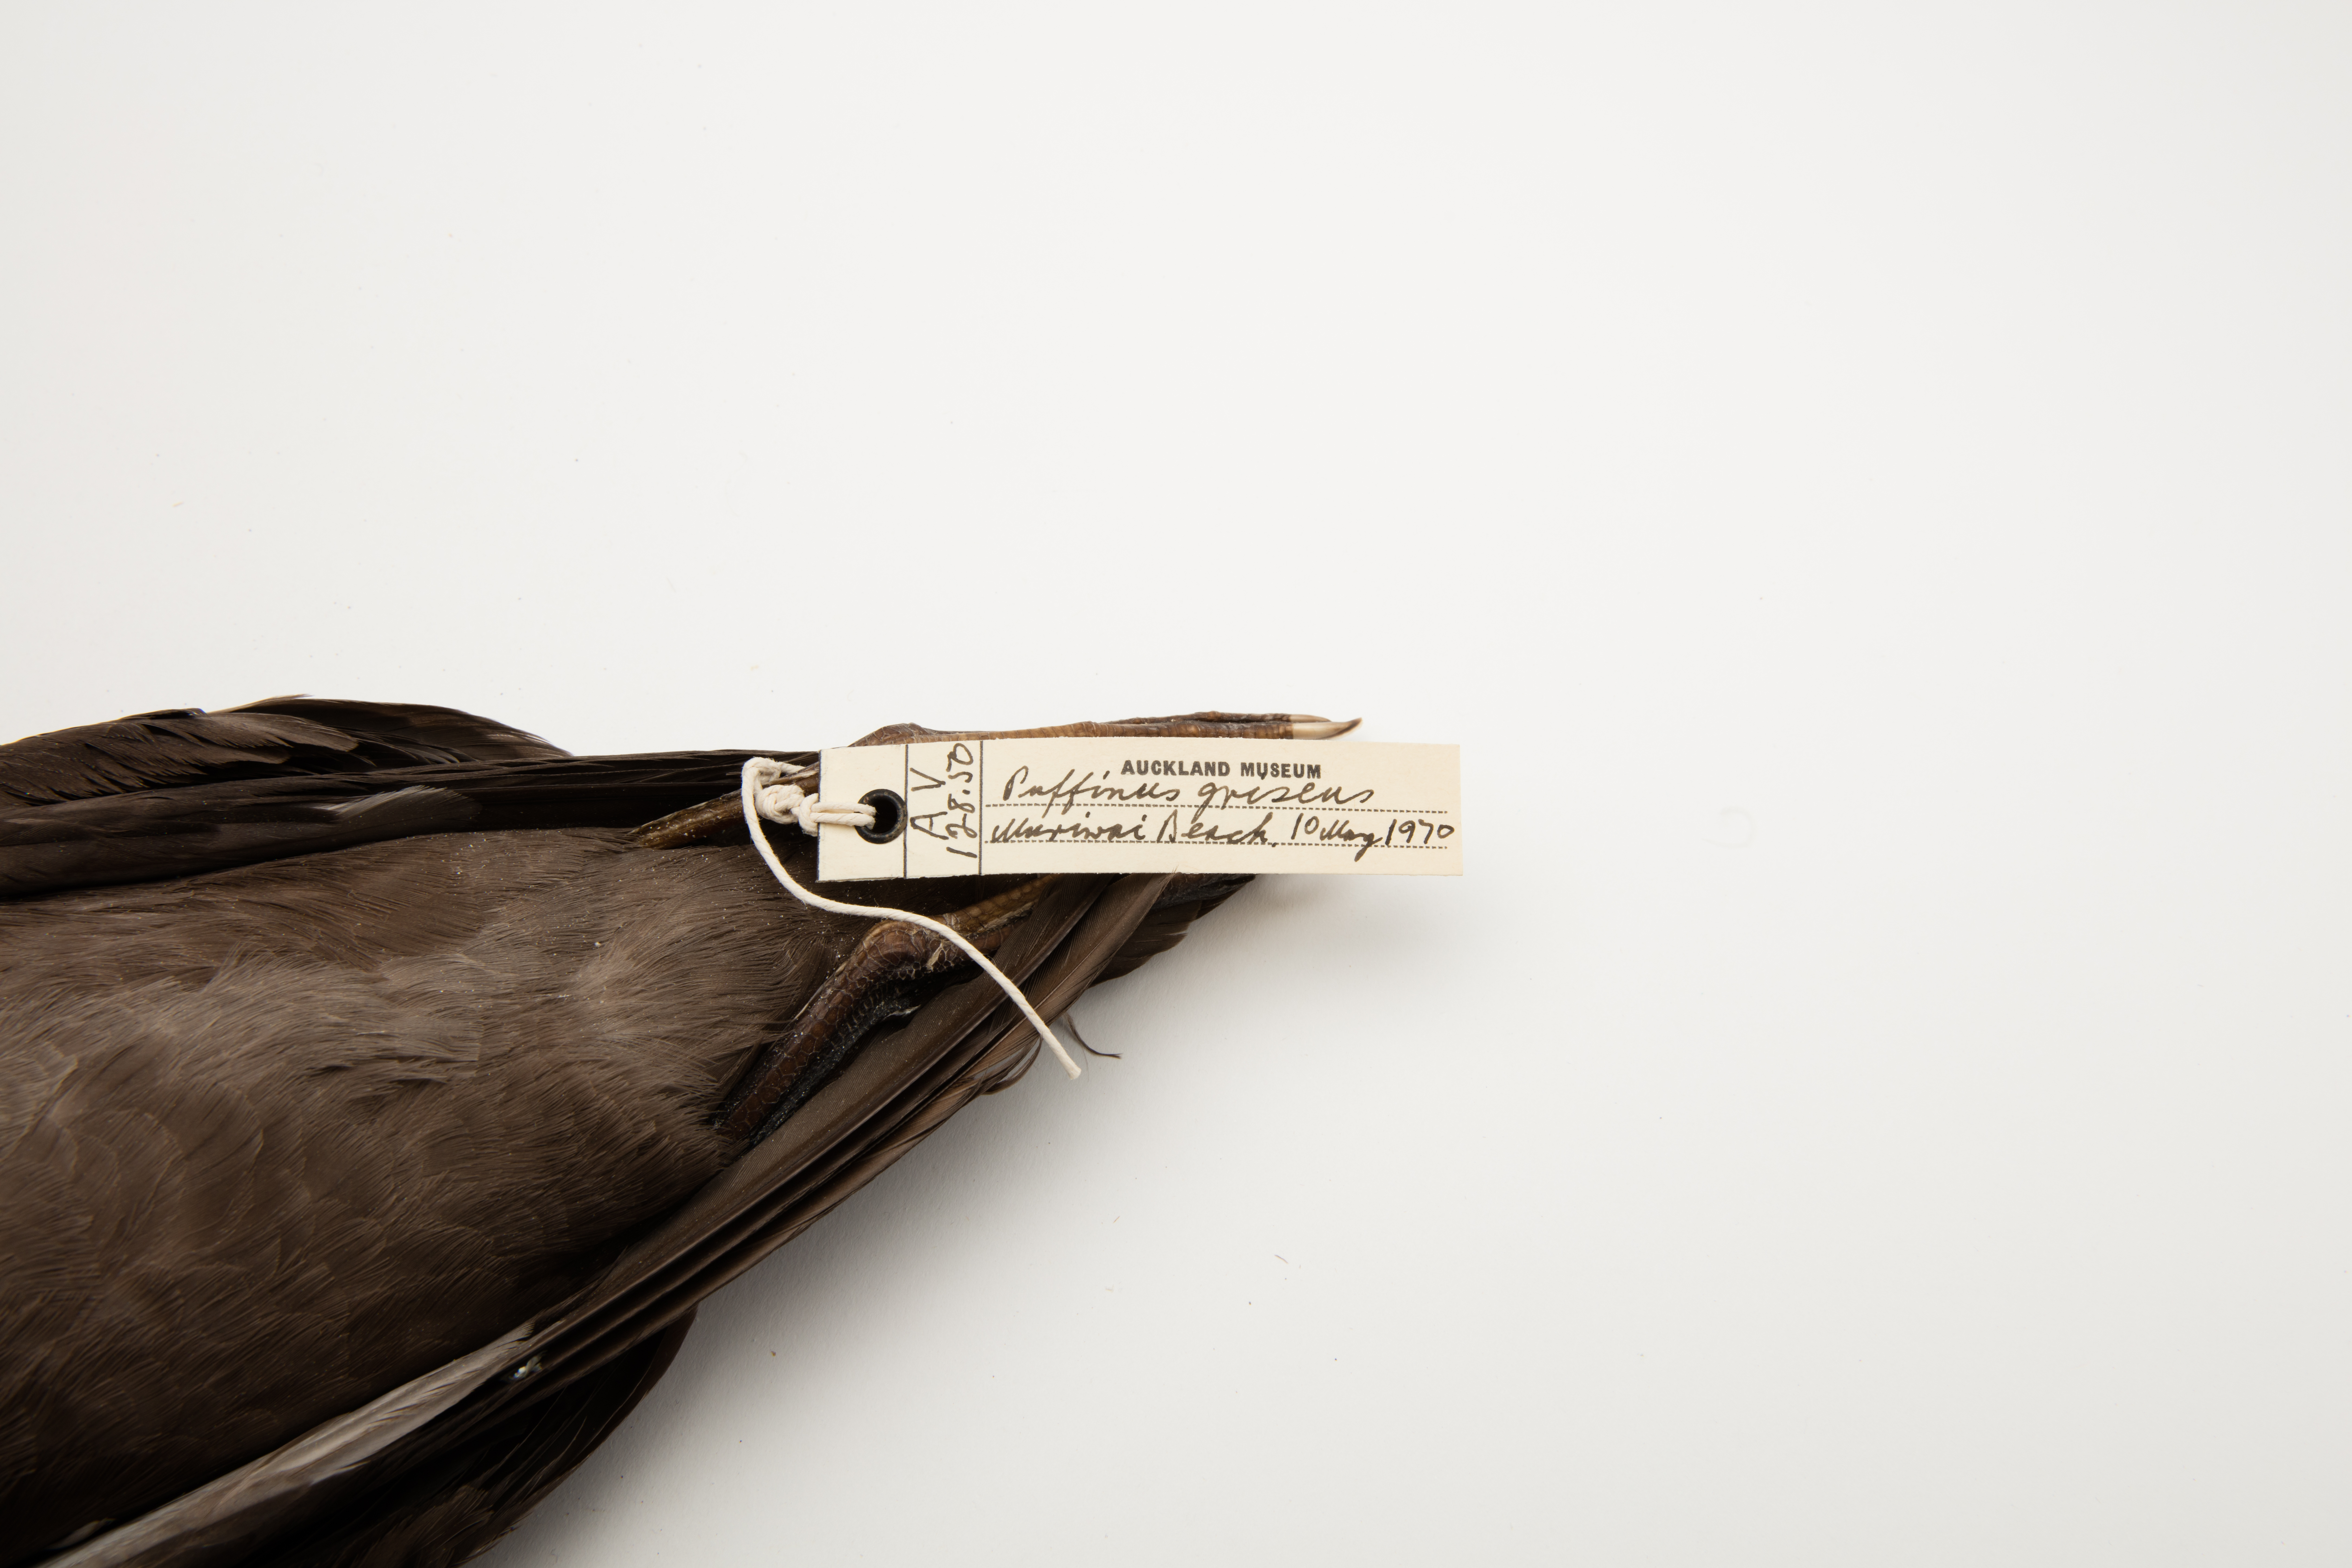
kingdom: Animalia
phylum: Chordata
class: Aves
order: Procellariiformes
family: Procellariidae
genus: Puffinus
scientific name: Puffinus griseus
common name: Sooty shearwater
